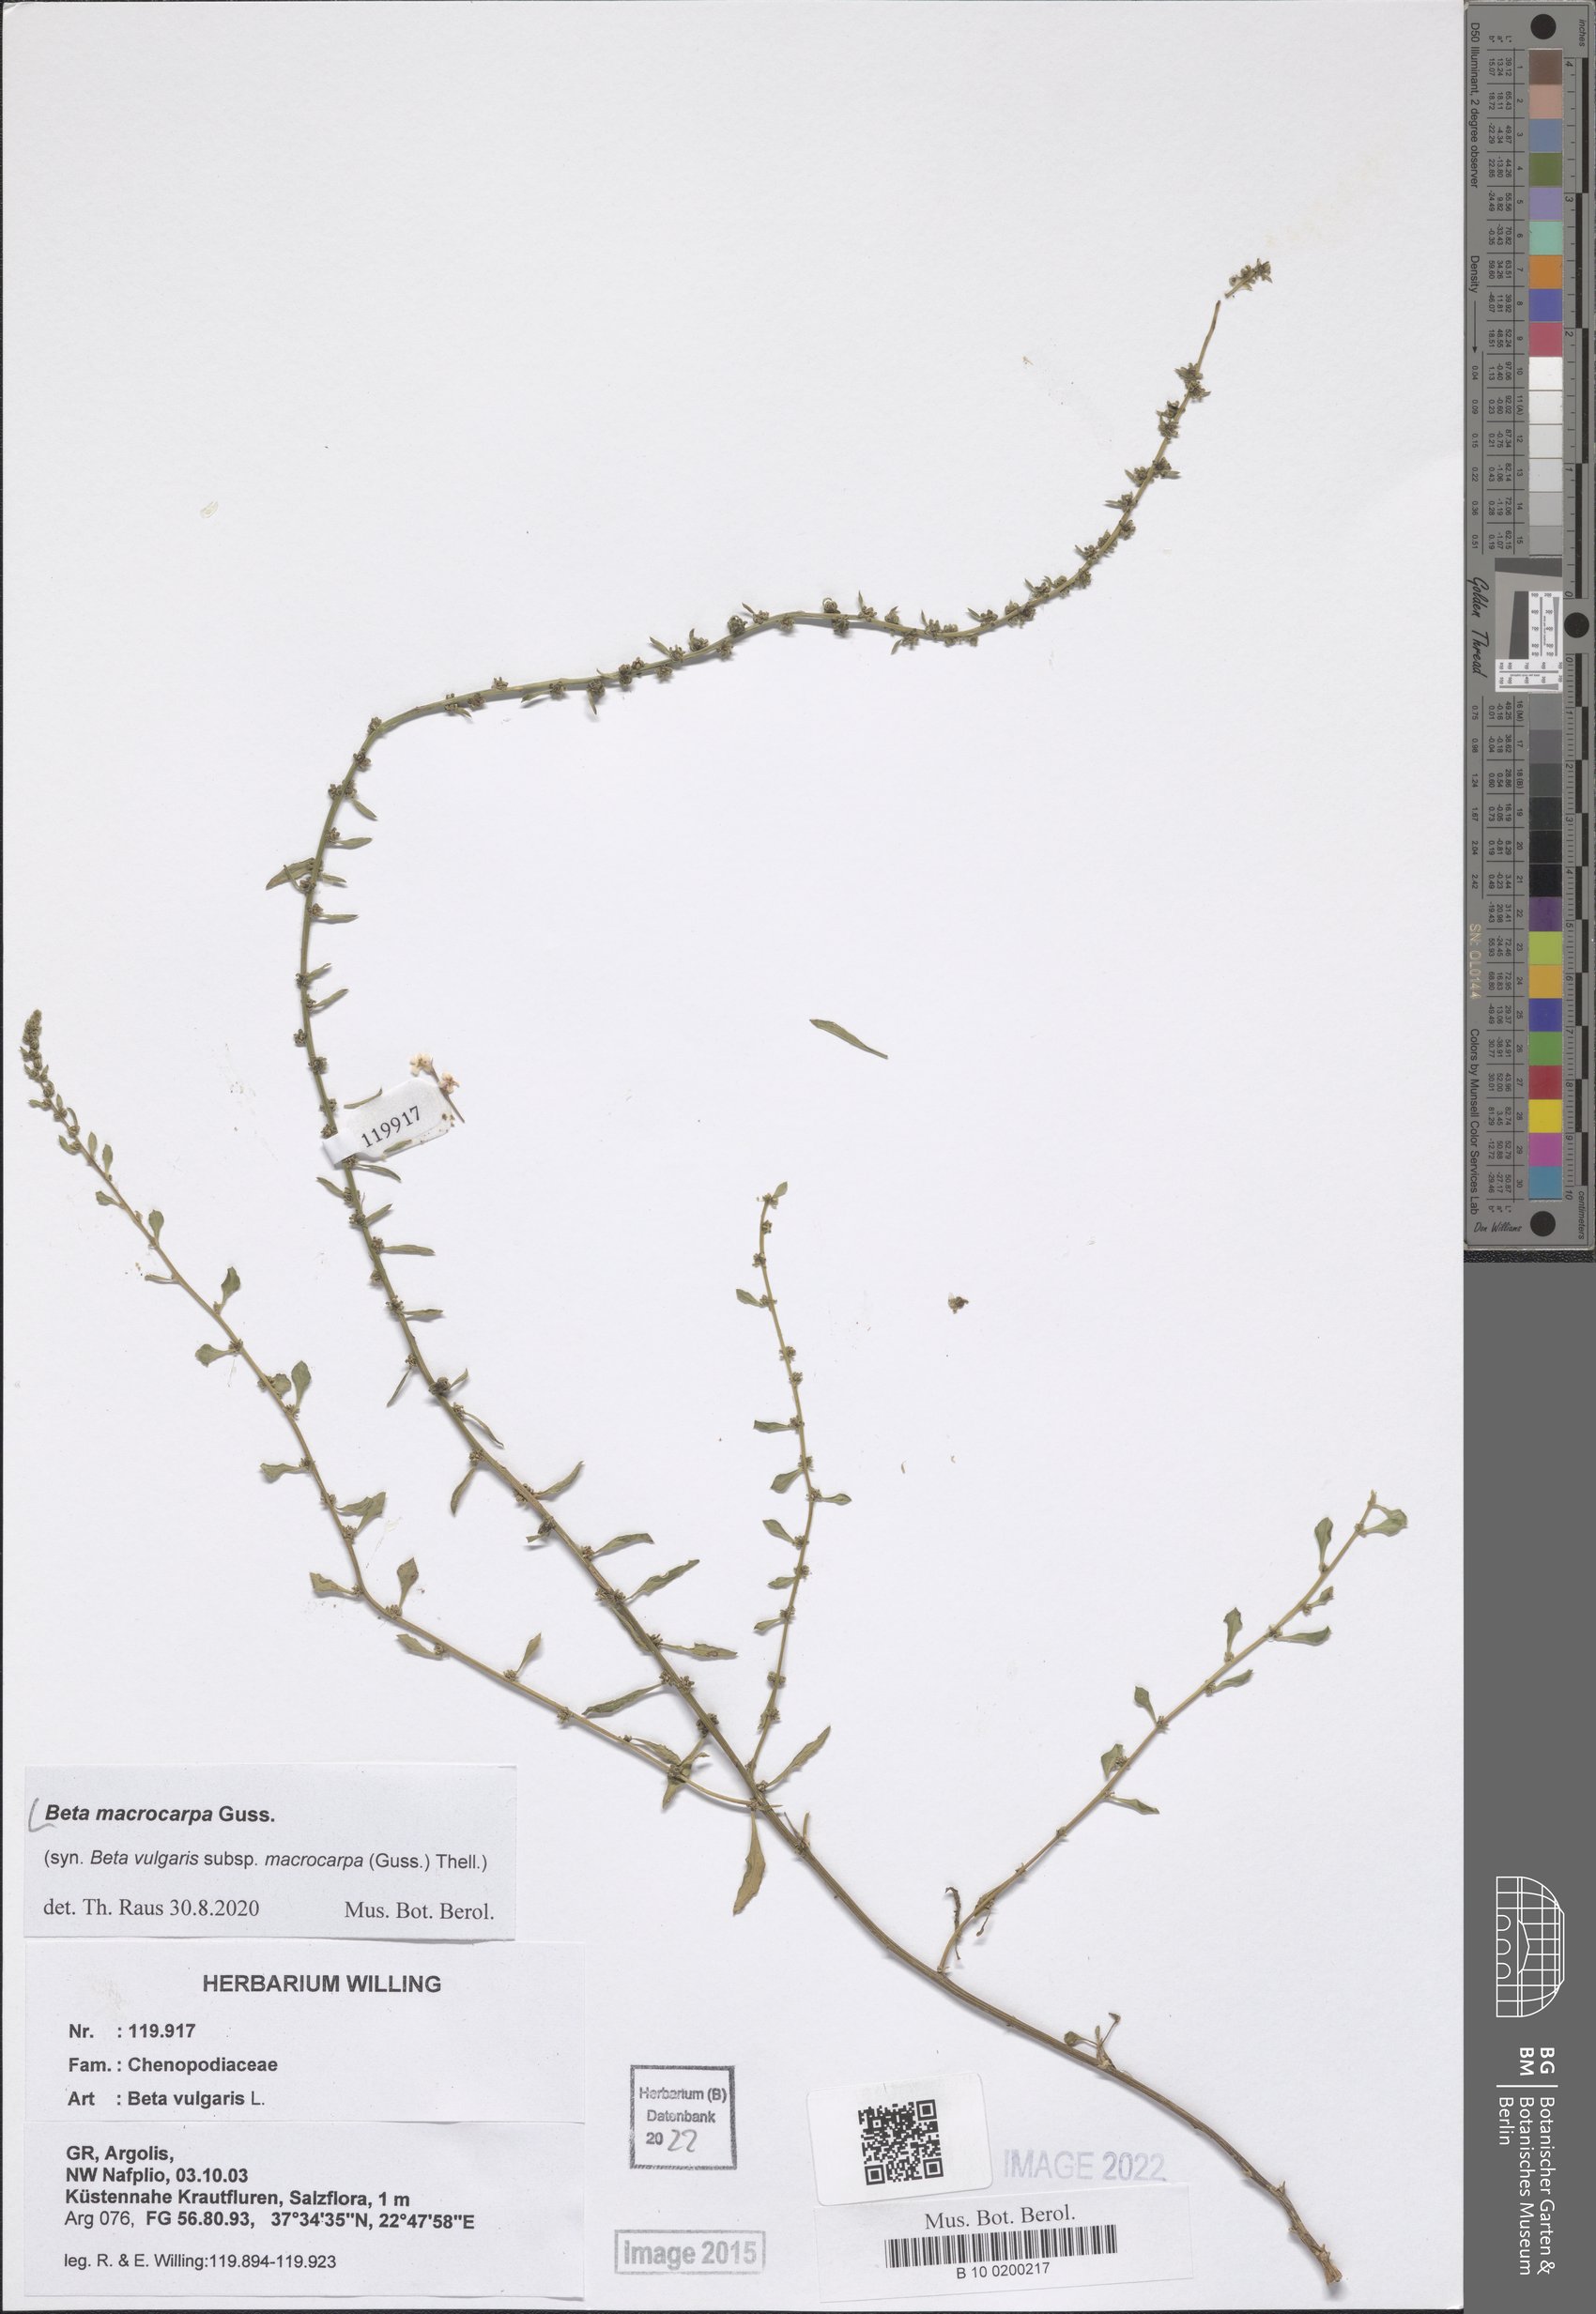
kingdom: Plantae
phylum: Tracheophyta
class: Magnoliopsida
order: Caryophyllales
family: Amaranthaceae
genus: Beta
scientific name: Beta macrocarpa
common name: Beet
